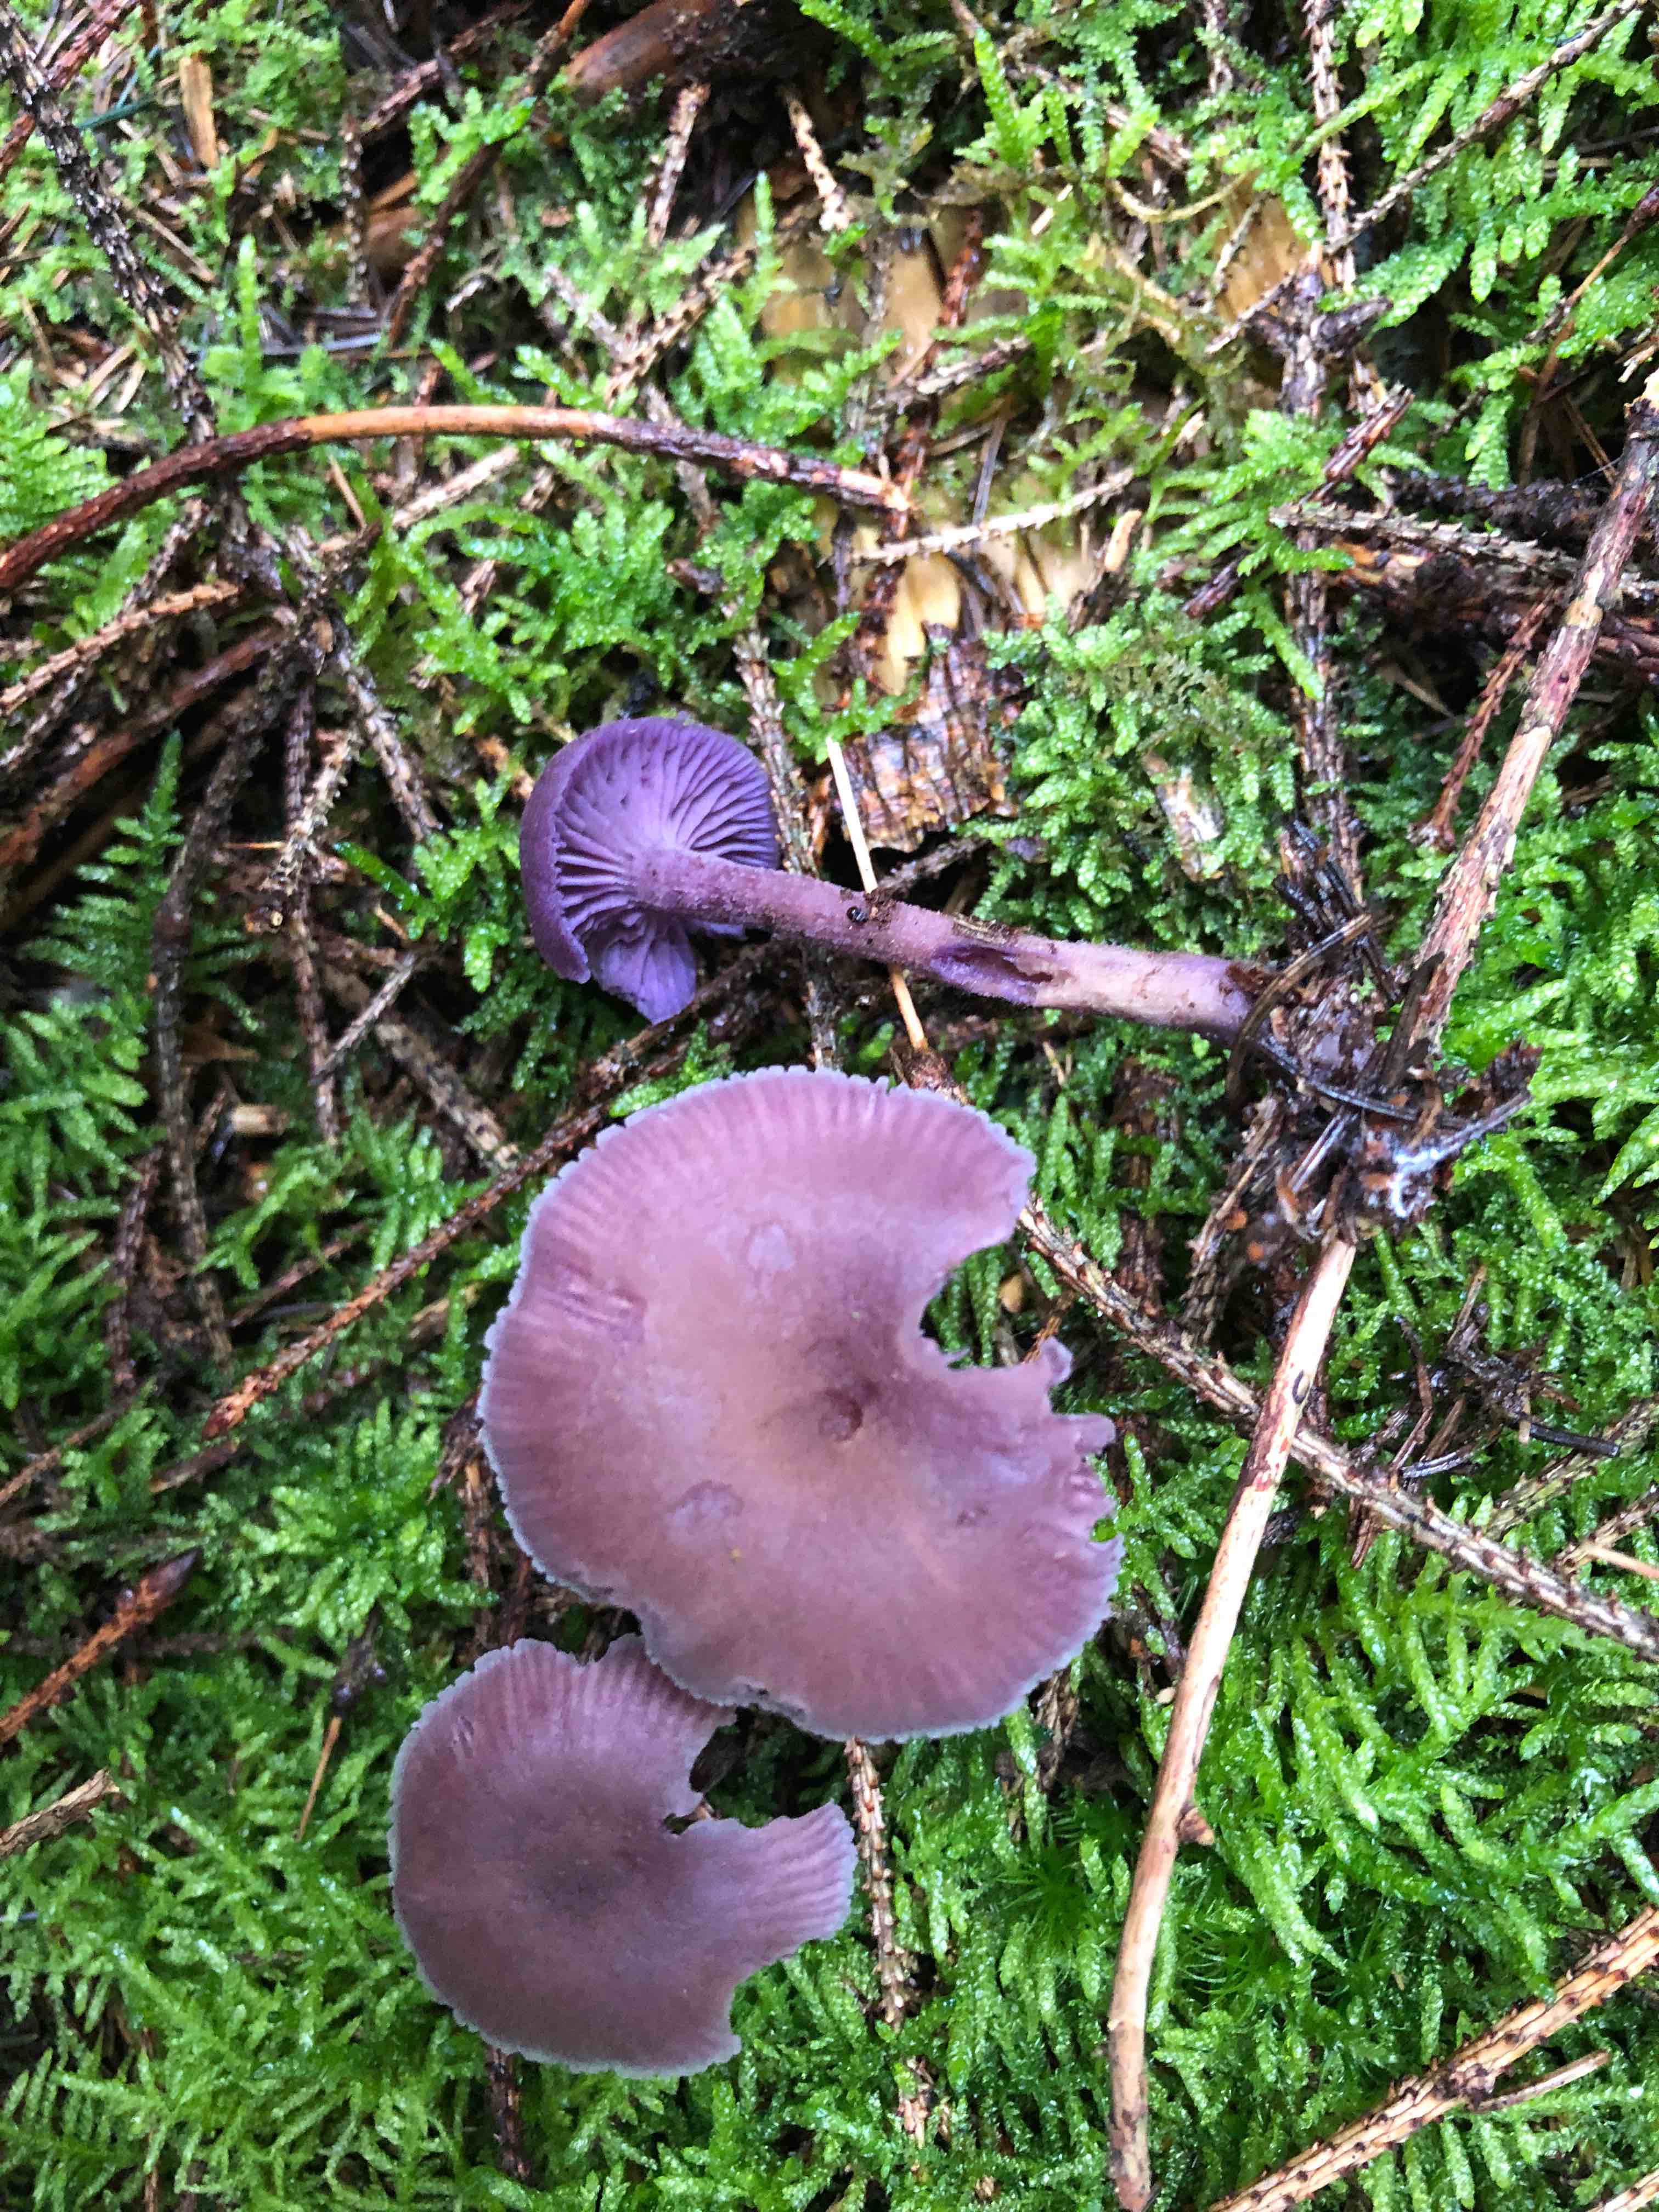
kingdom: Fungi
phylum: Basidiomycota
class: Agaricomycetes
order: Agaricales
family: Hydnangiaceae
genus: Laccaria
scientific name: Laccaria amethystina
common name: violet ametysthat
